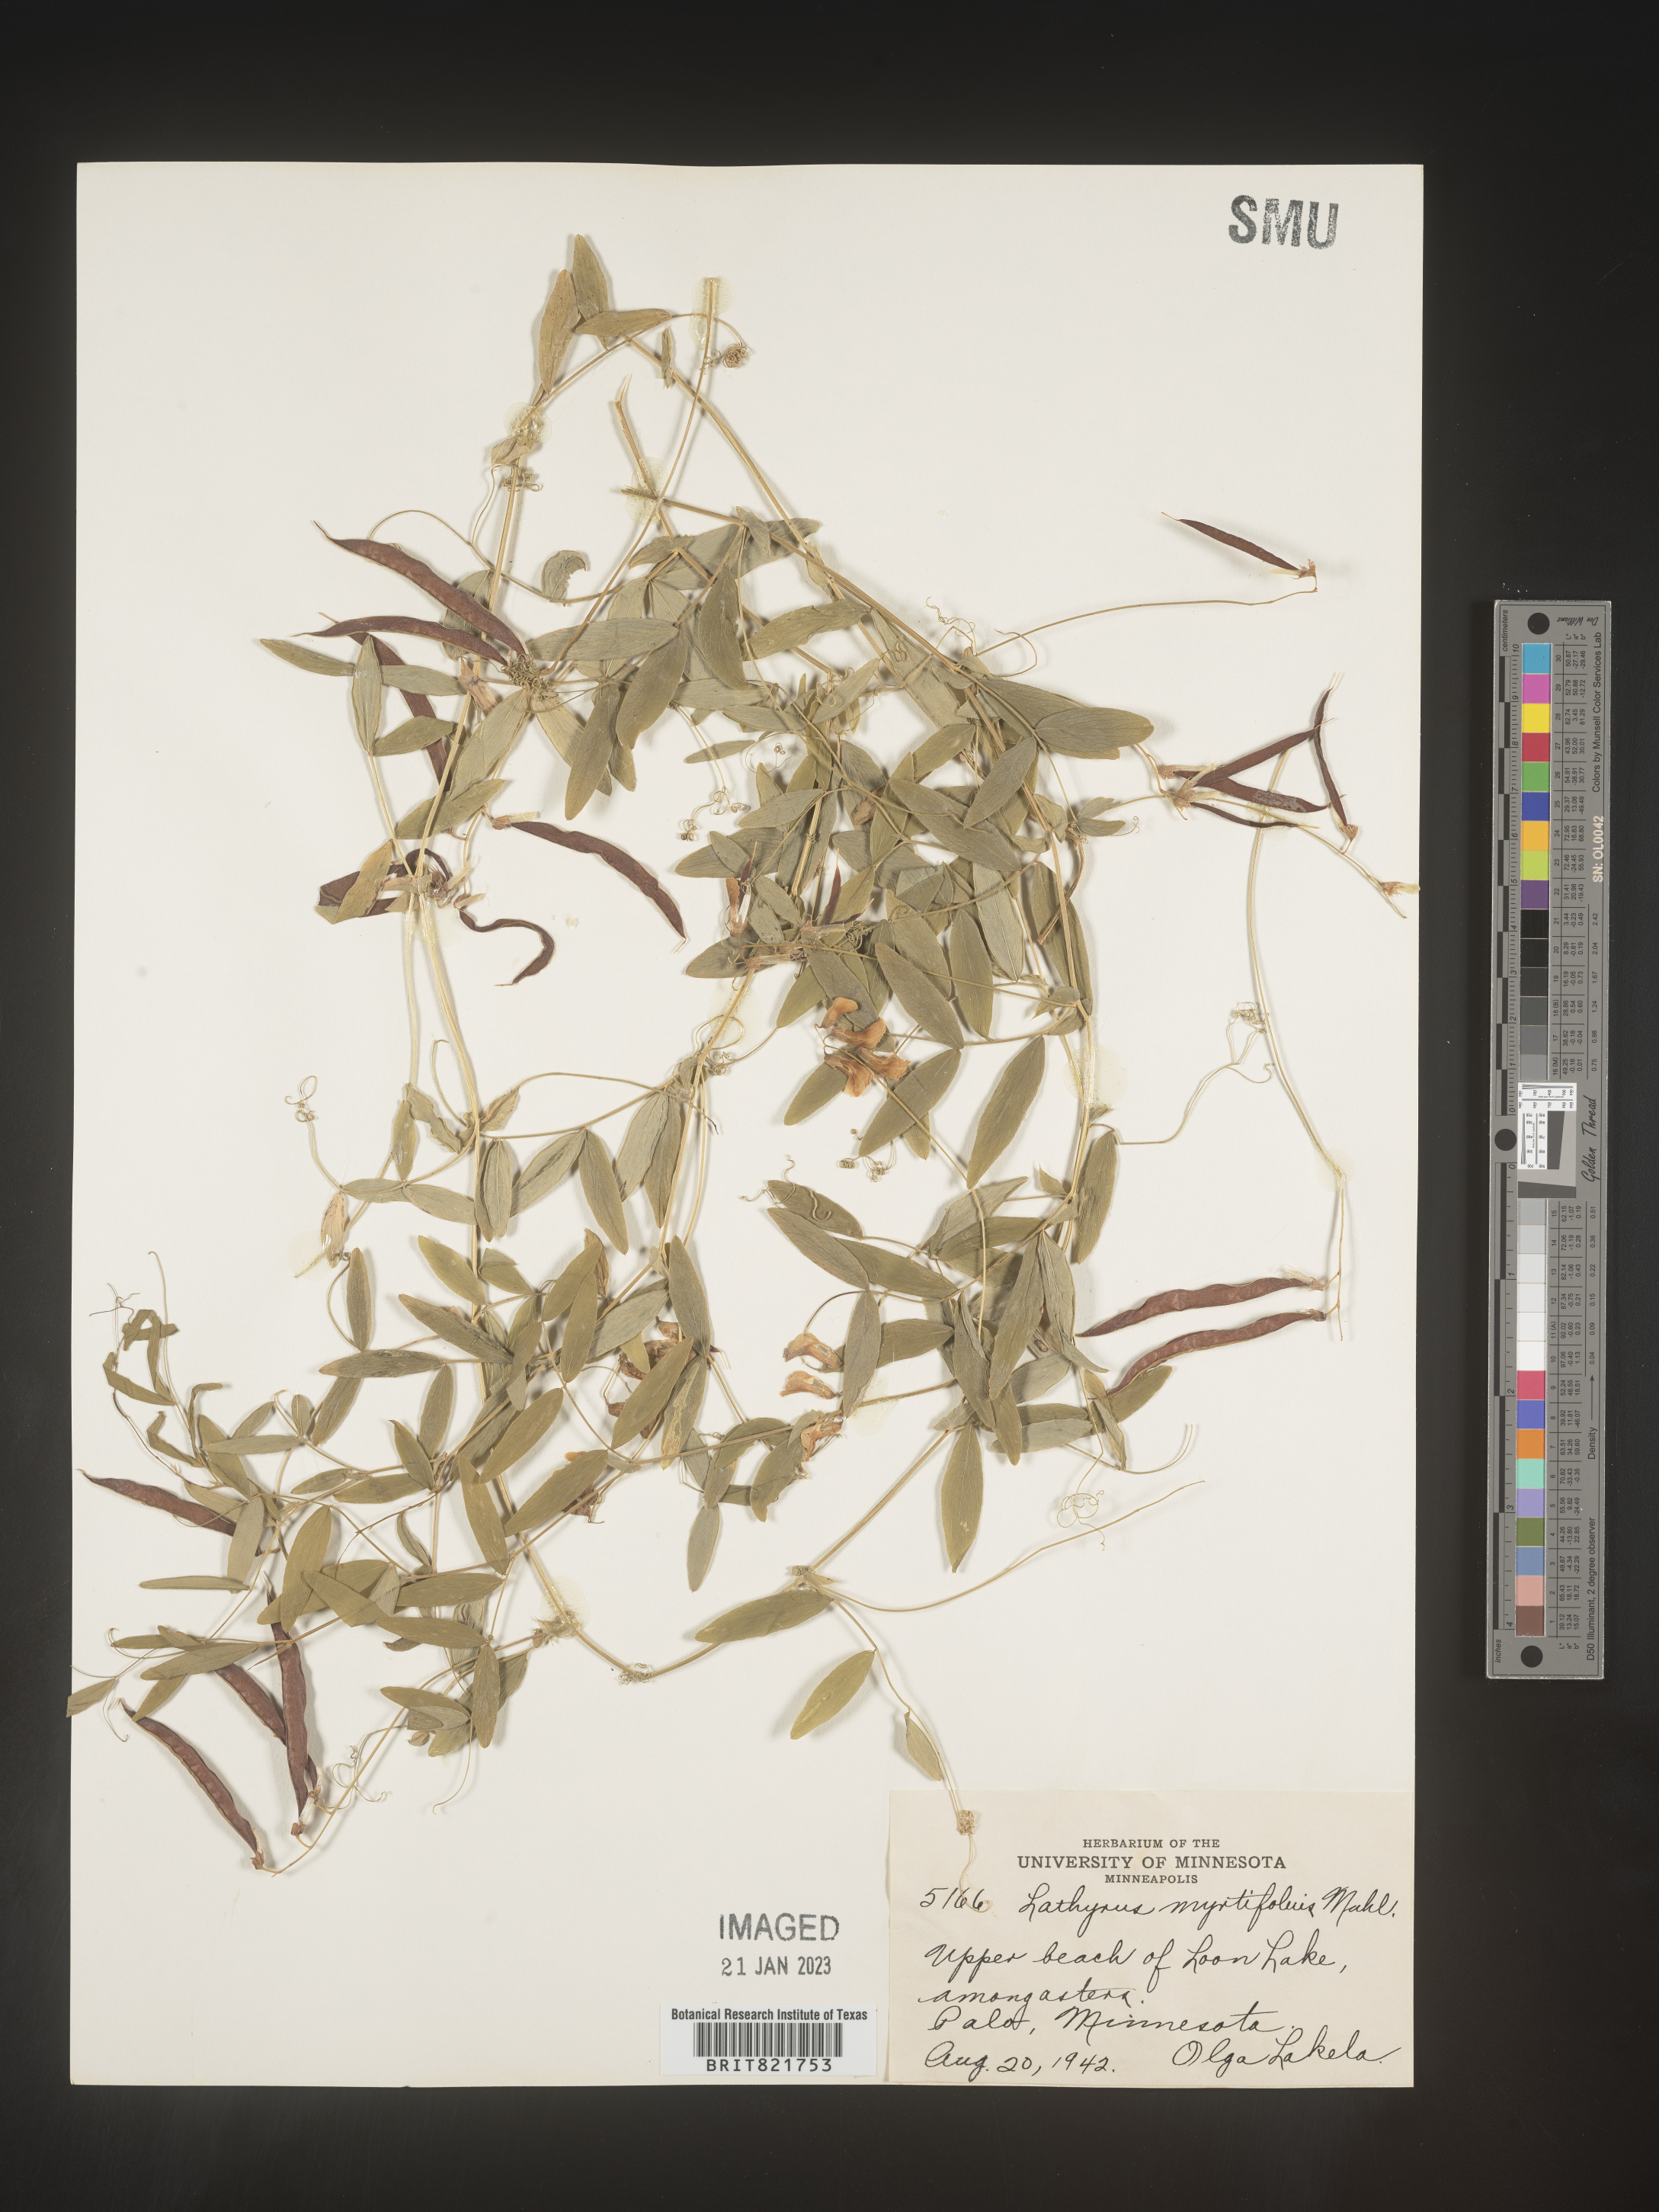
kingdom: Plantae
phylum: Tracheophyta
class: Magnoliopsida
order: Fabales
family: Fabaceae
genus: Lathyrus
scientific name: Lathyrus palustris
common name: Marsh pea
